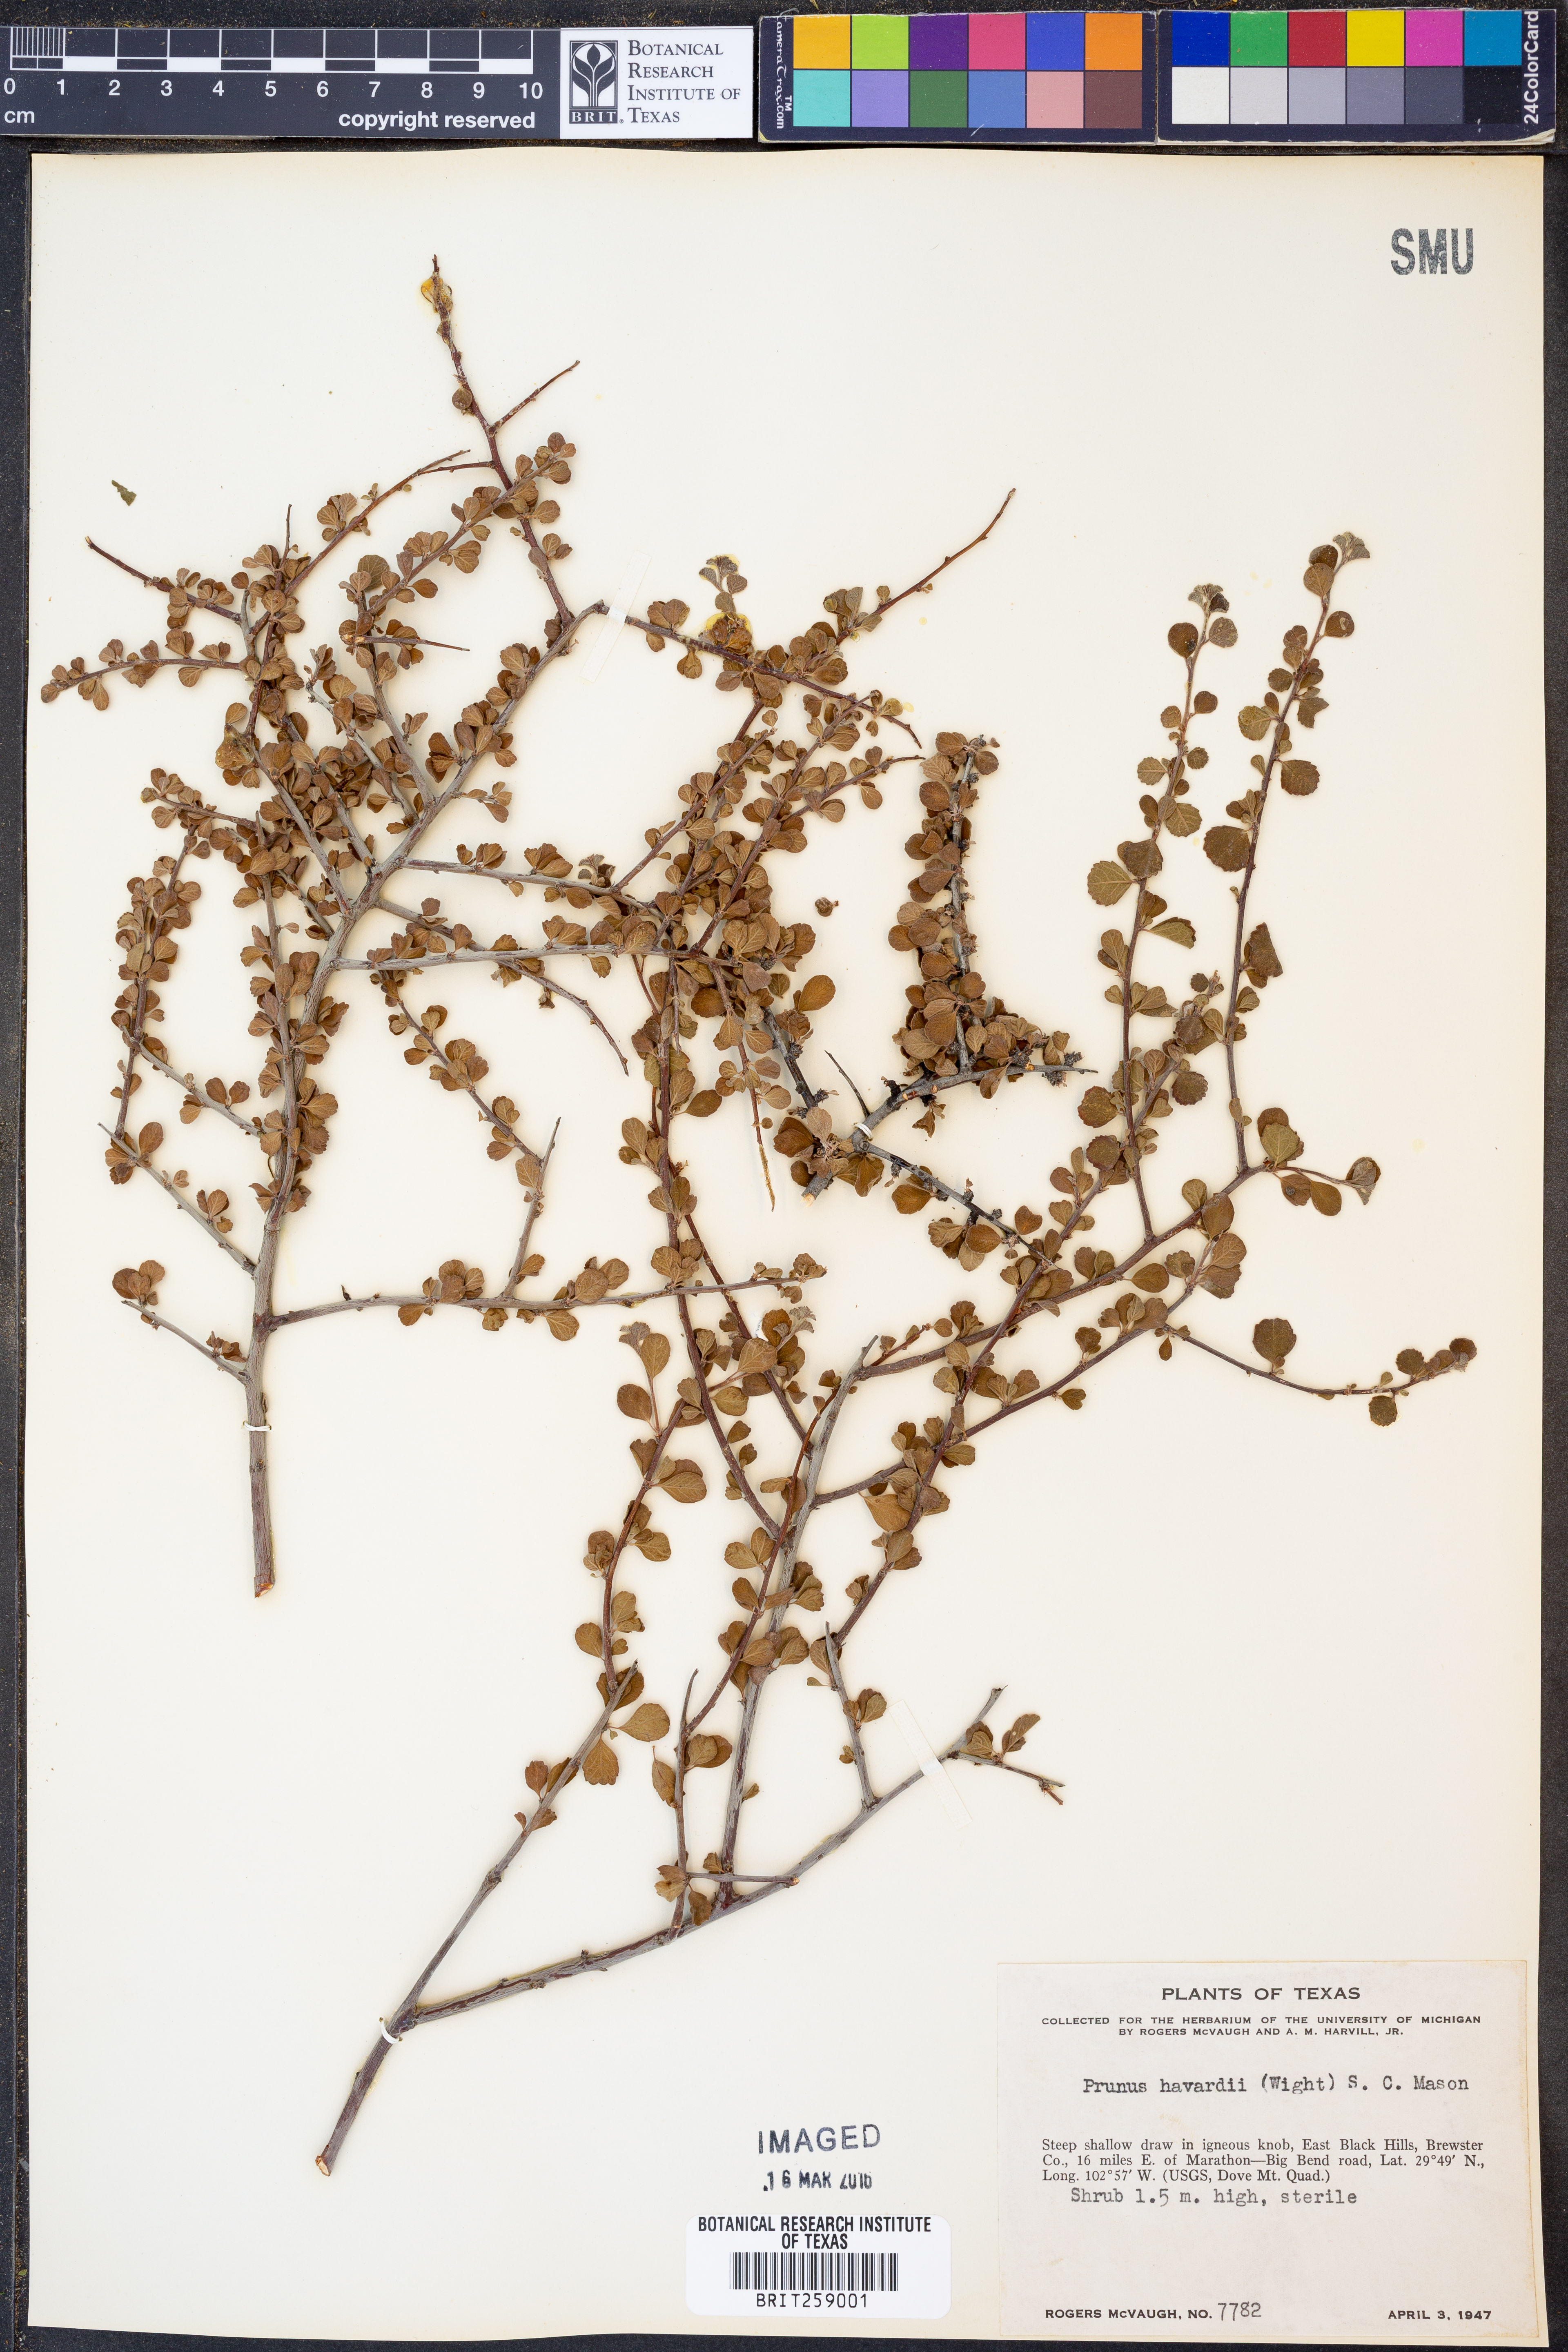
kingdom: Plantae
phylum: Tracheophyta
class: Magnoliopsida
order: Rosales
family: Rosaceae
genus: Prunus
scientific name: Prunus havardii
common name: Havard plum
